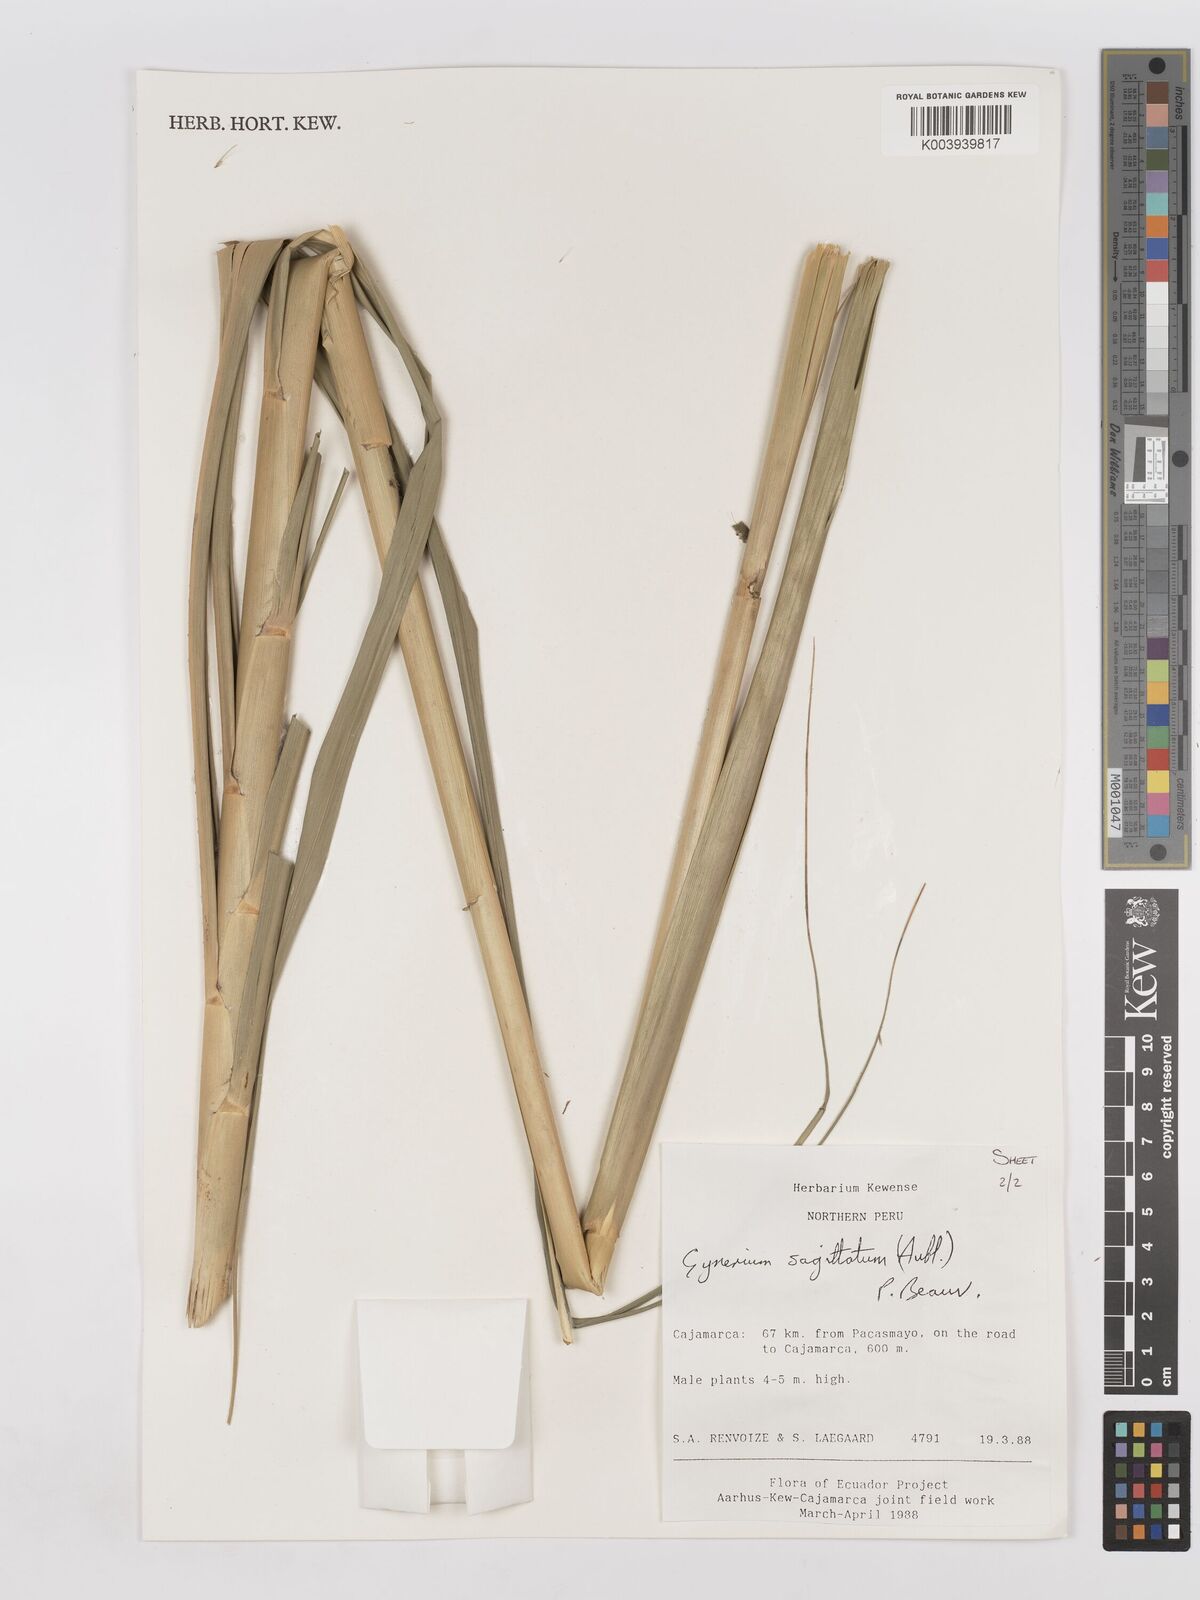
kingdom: Plantae
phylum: Tracheophyta
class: Liliopsida
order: Poales
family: Poaceae
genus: Gynerium
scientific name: Gynerium sagittatum
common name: Wild cane
